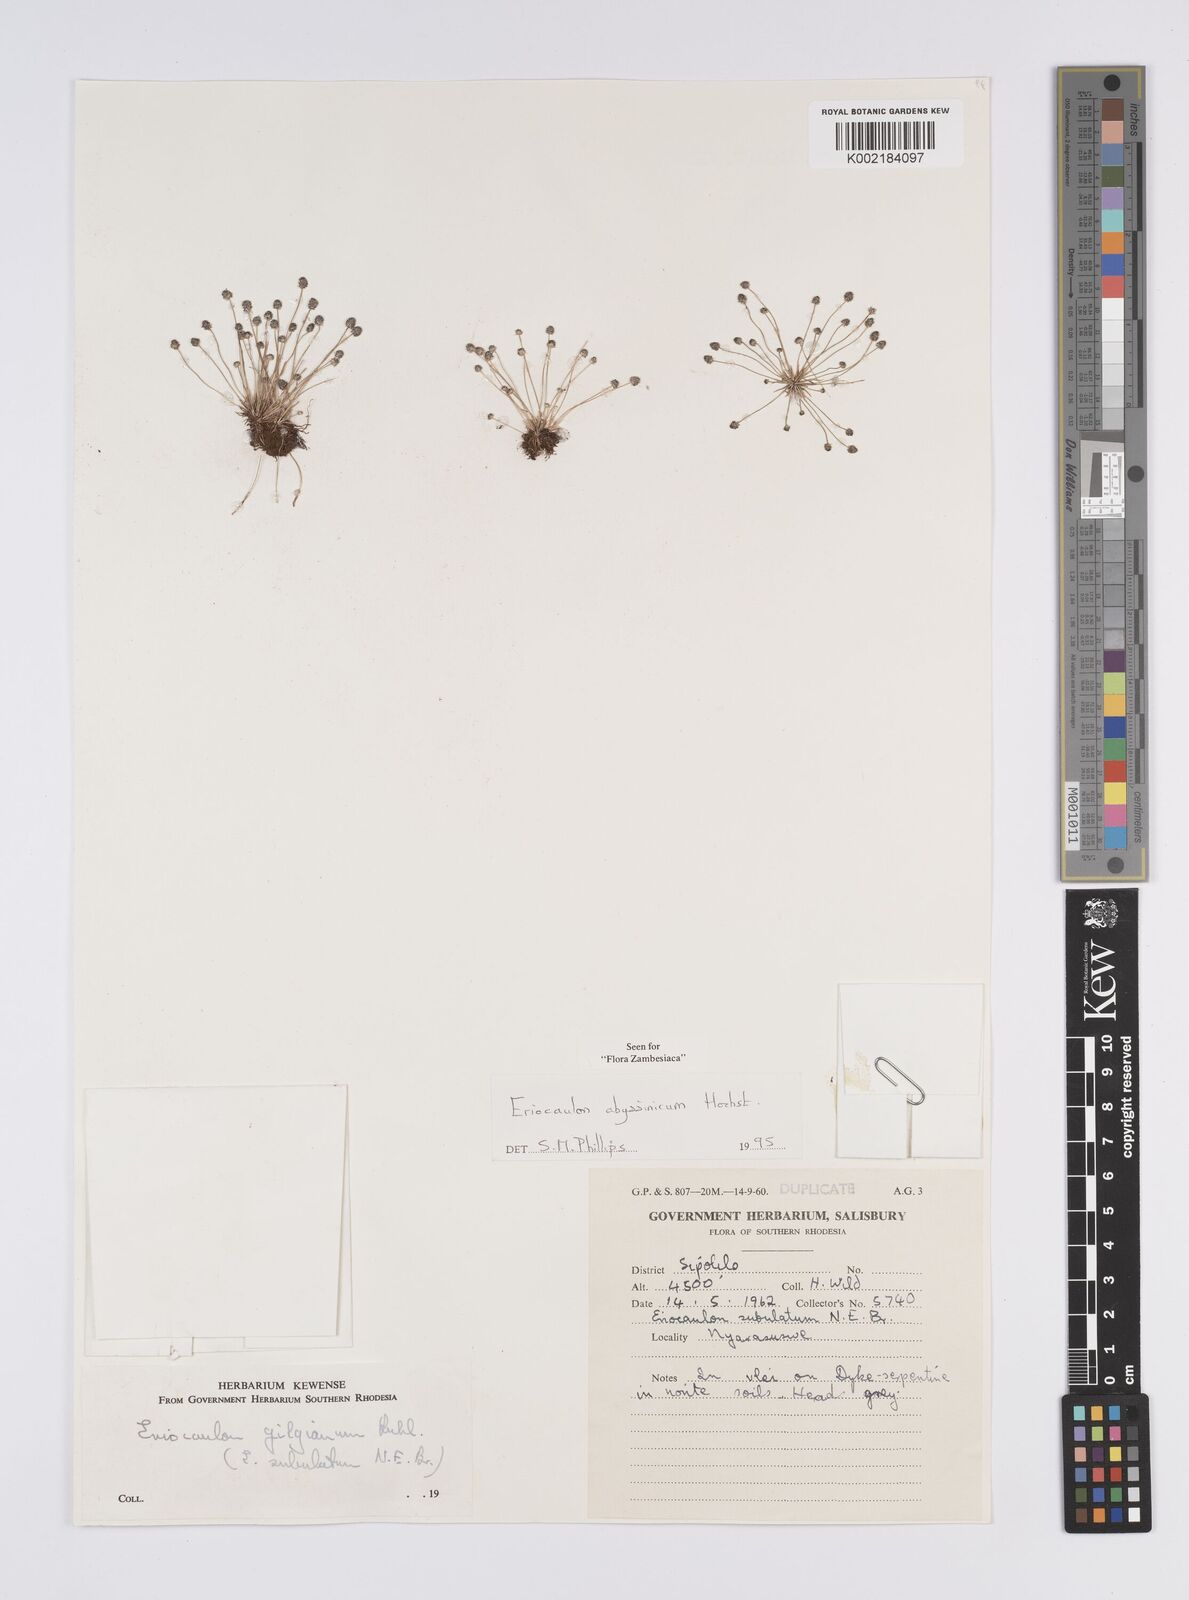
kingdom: Plantae
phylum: Tracheophyta
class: Liliopsida
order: Poales
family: Eriocaulaceae
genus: Eriocaulon
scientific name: Eriocaulon abyssinicum
